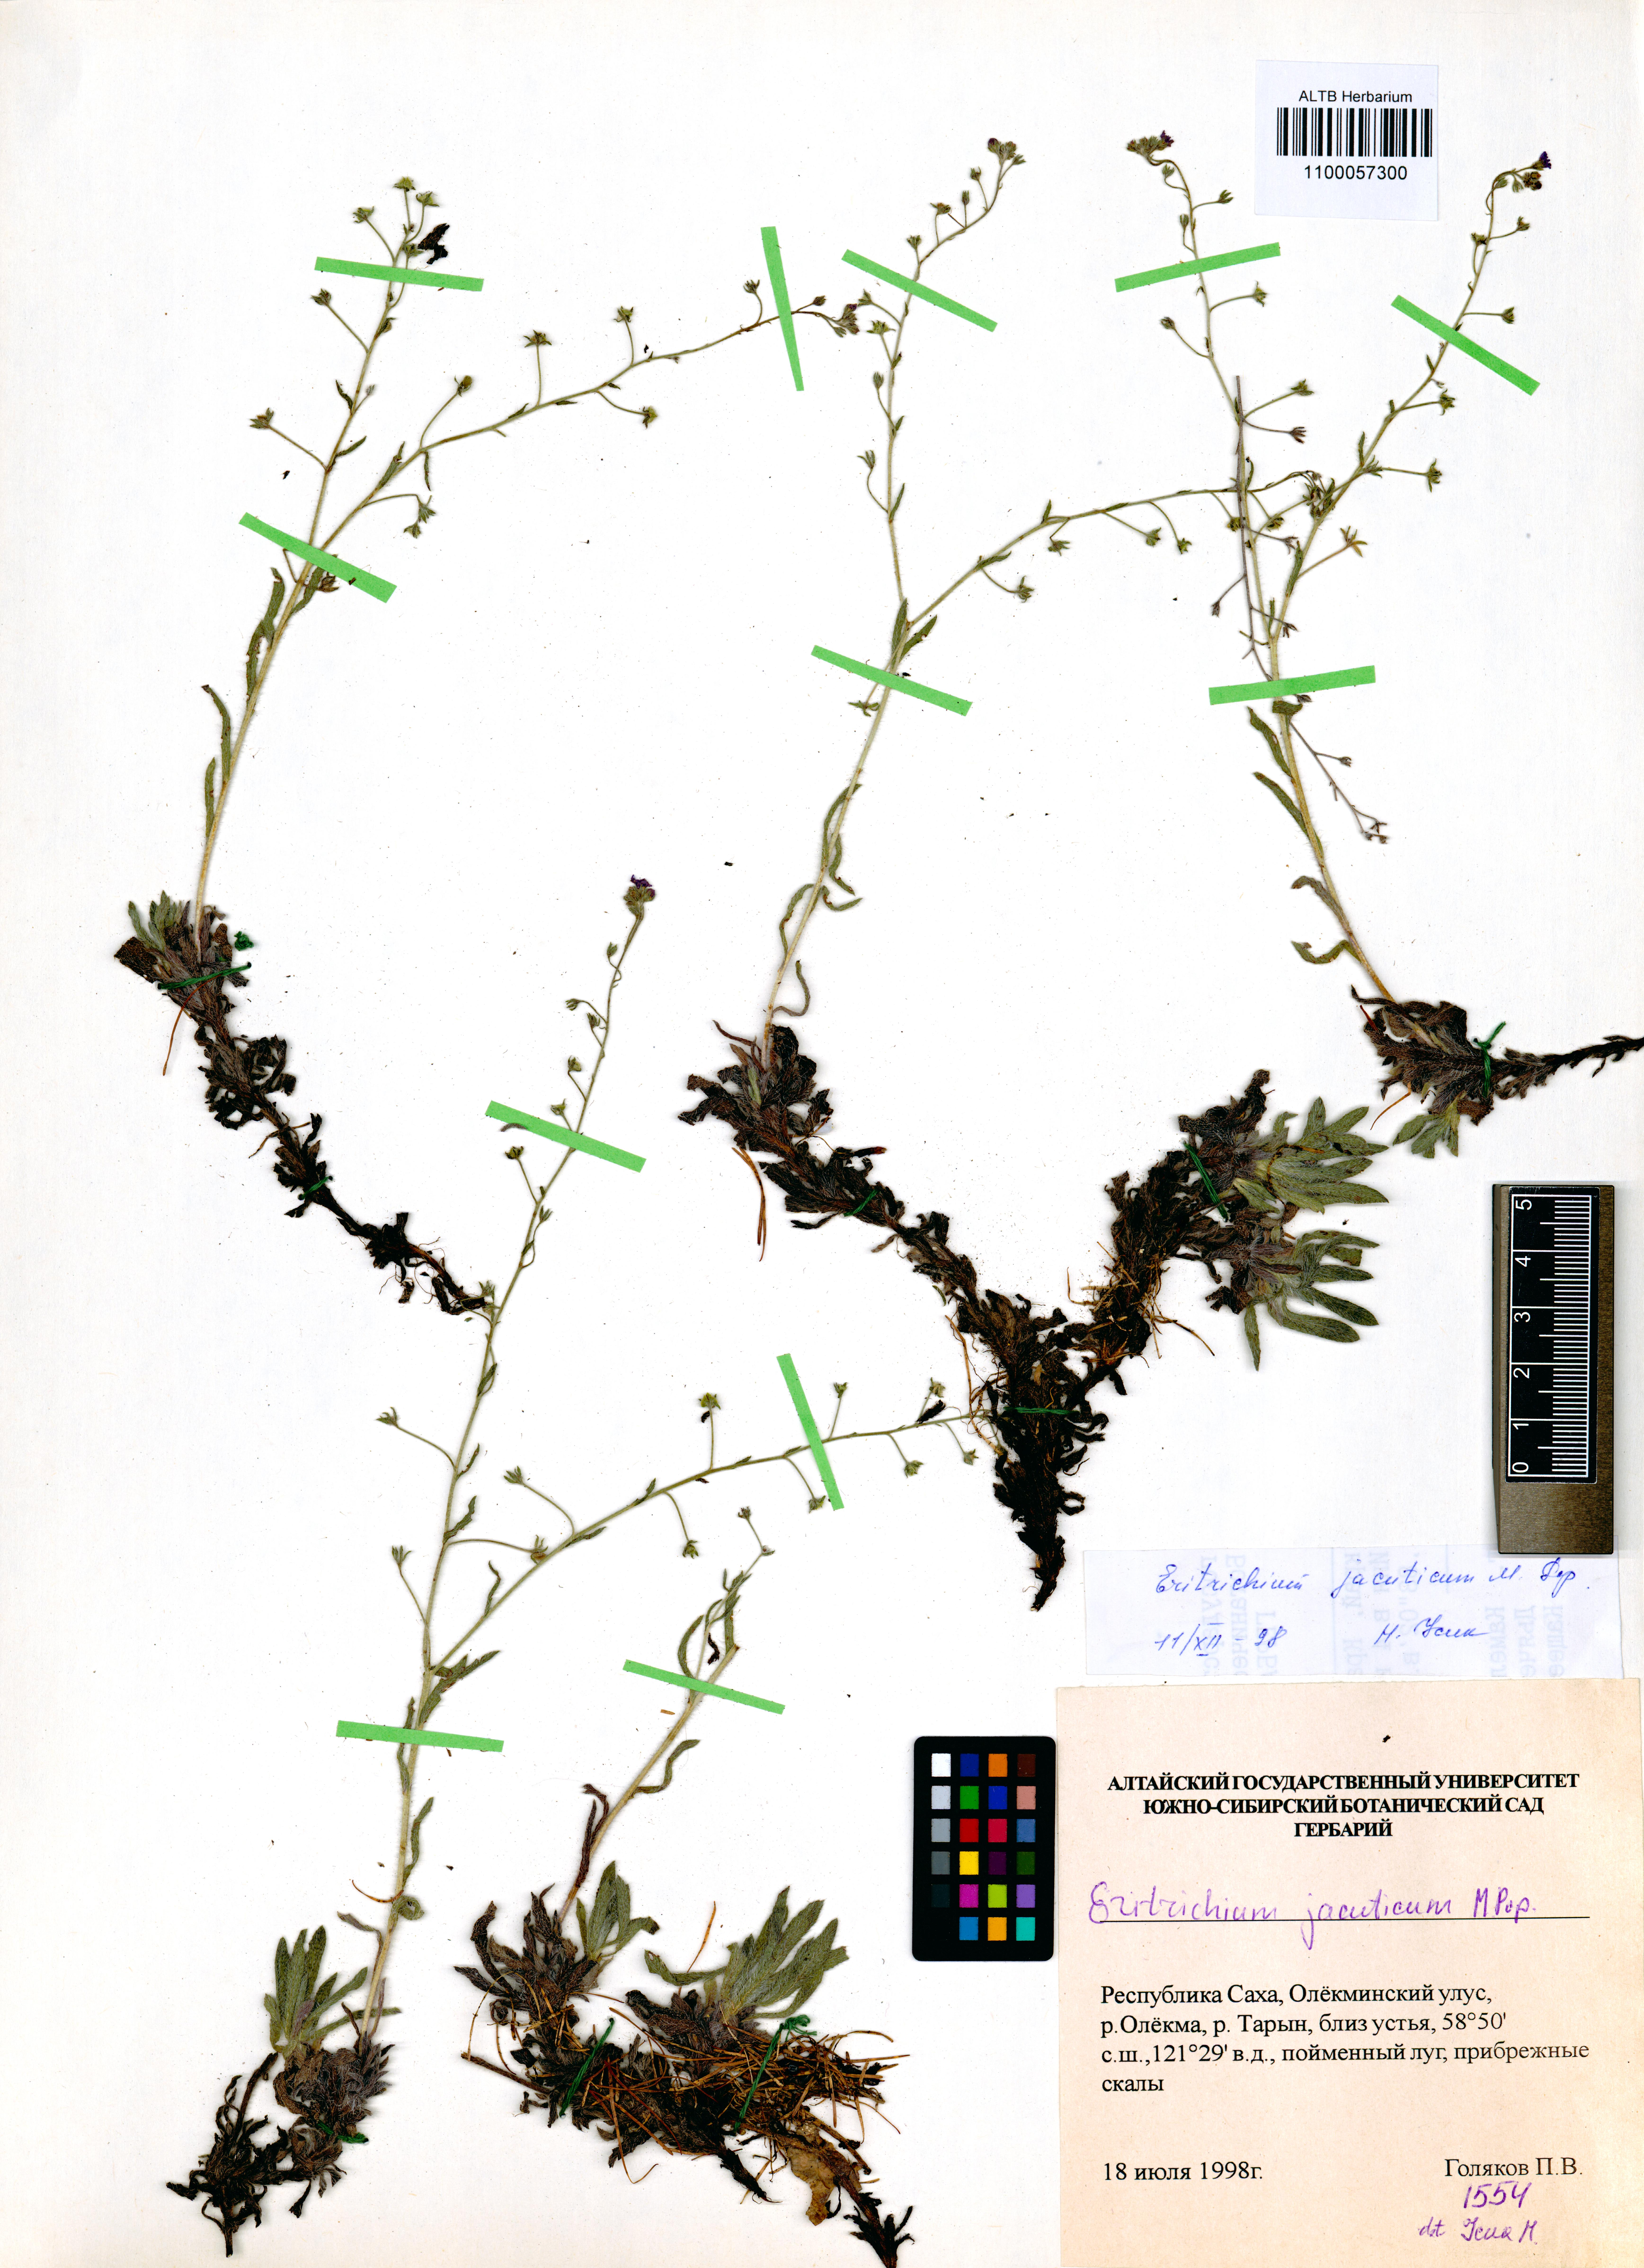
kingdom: Plantae
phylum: Tracheophyta
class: Magnoliopsida
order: Boraginales
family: Boraginaceae
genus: Eritrichium
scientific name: Eritrichium jacuticum
